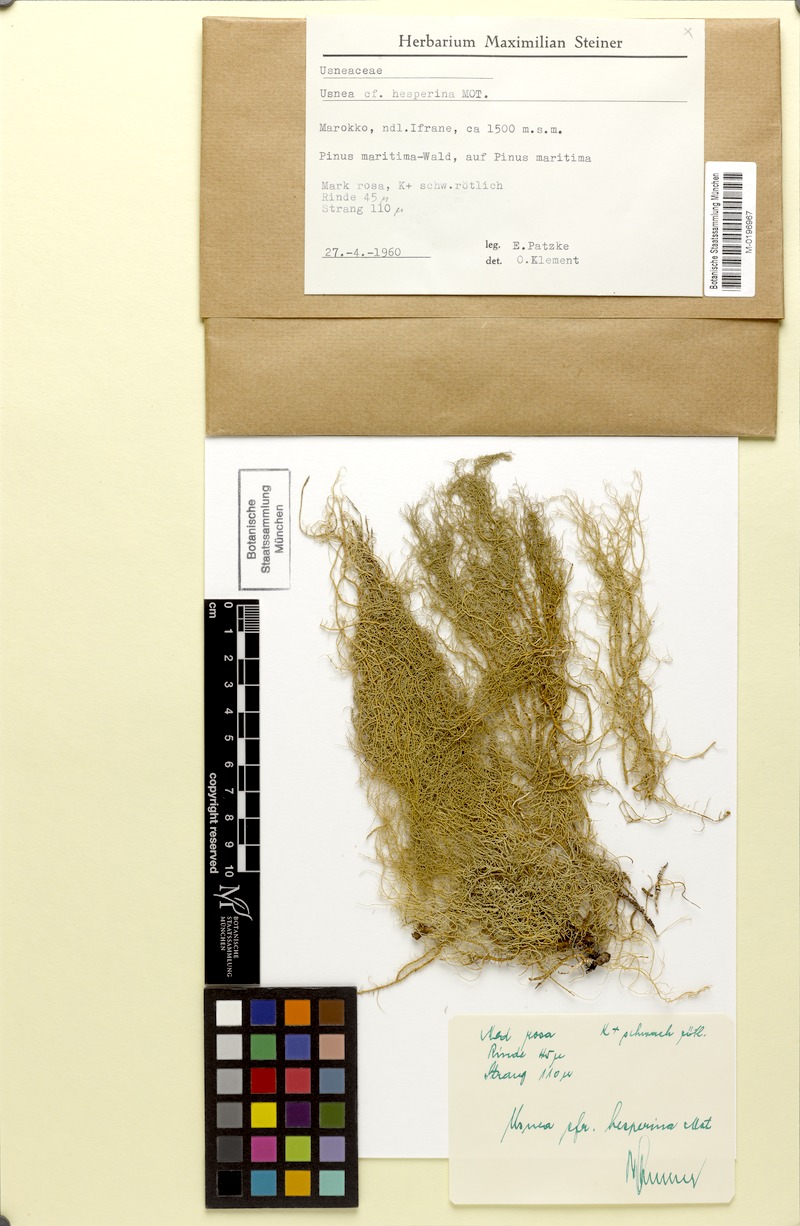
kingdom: Fungi
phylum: Ascomycota
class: Lecanoromycetes
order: Lecanorales
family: Parmeliaceae
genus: Usnea
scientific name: Usnea subgracilis
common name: Beard lichen
